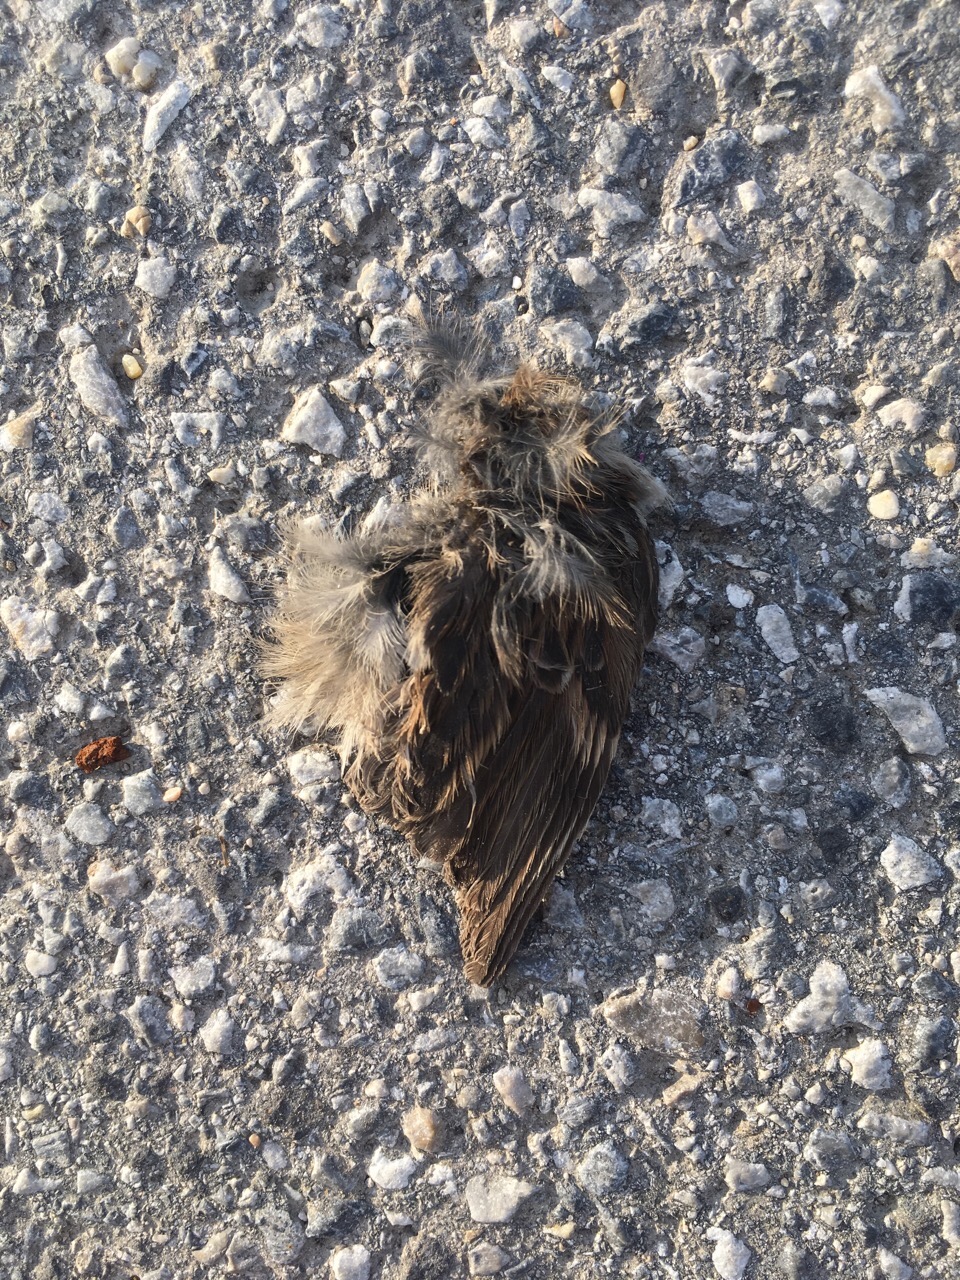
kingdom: Animalia
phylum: Chordata
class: Aves
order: Passeriformes
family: Passeridae
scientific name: Passeridae
